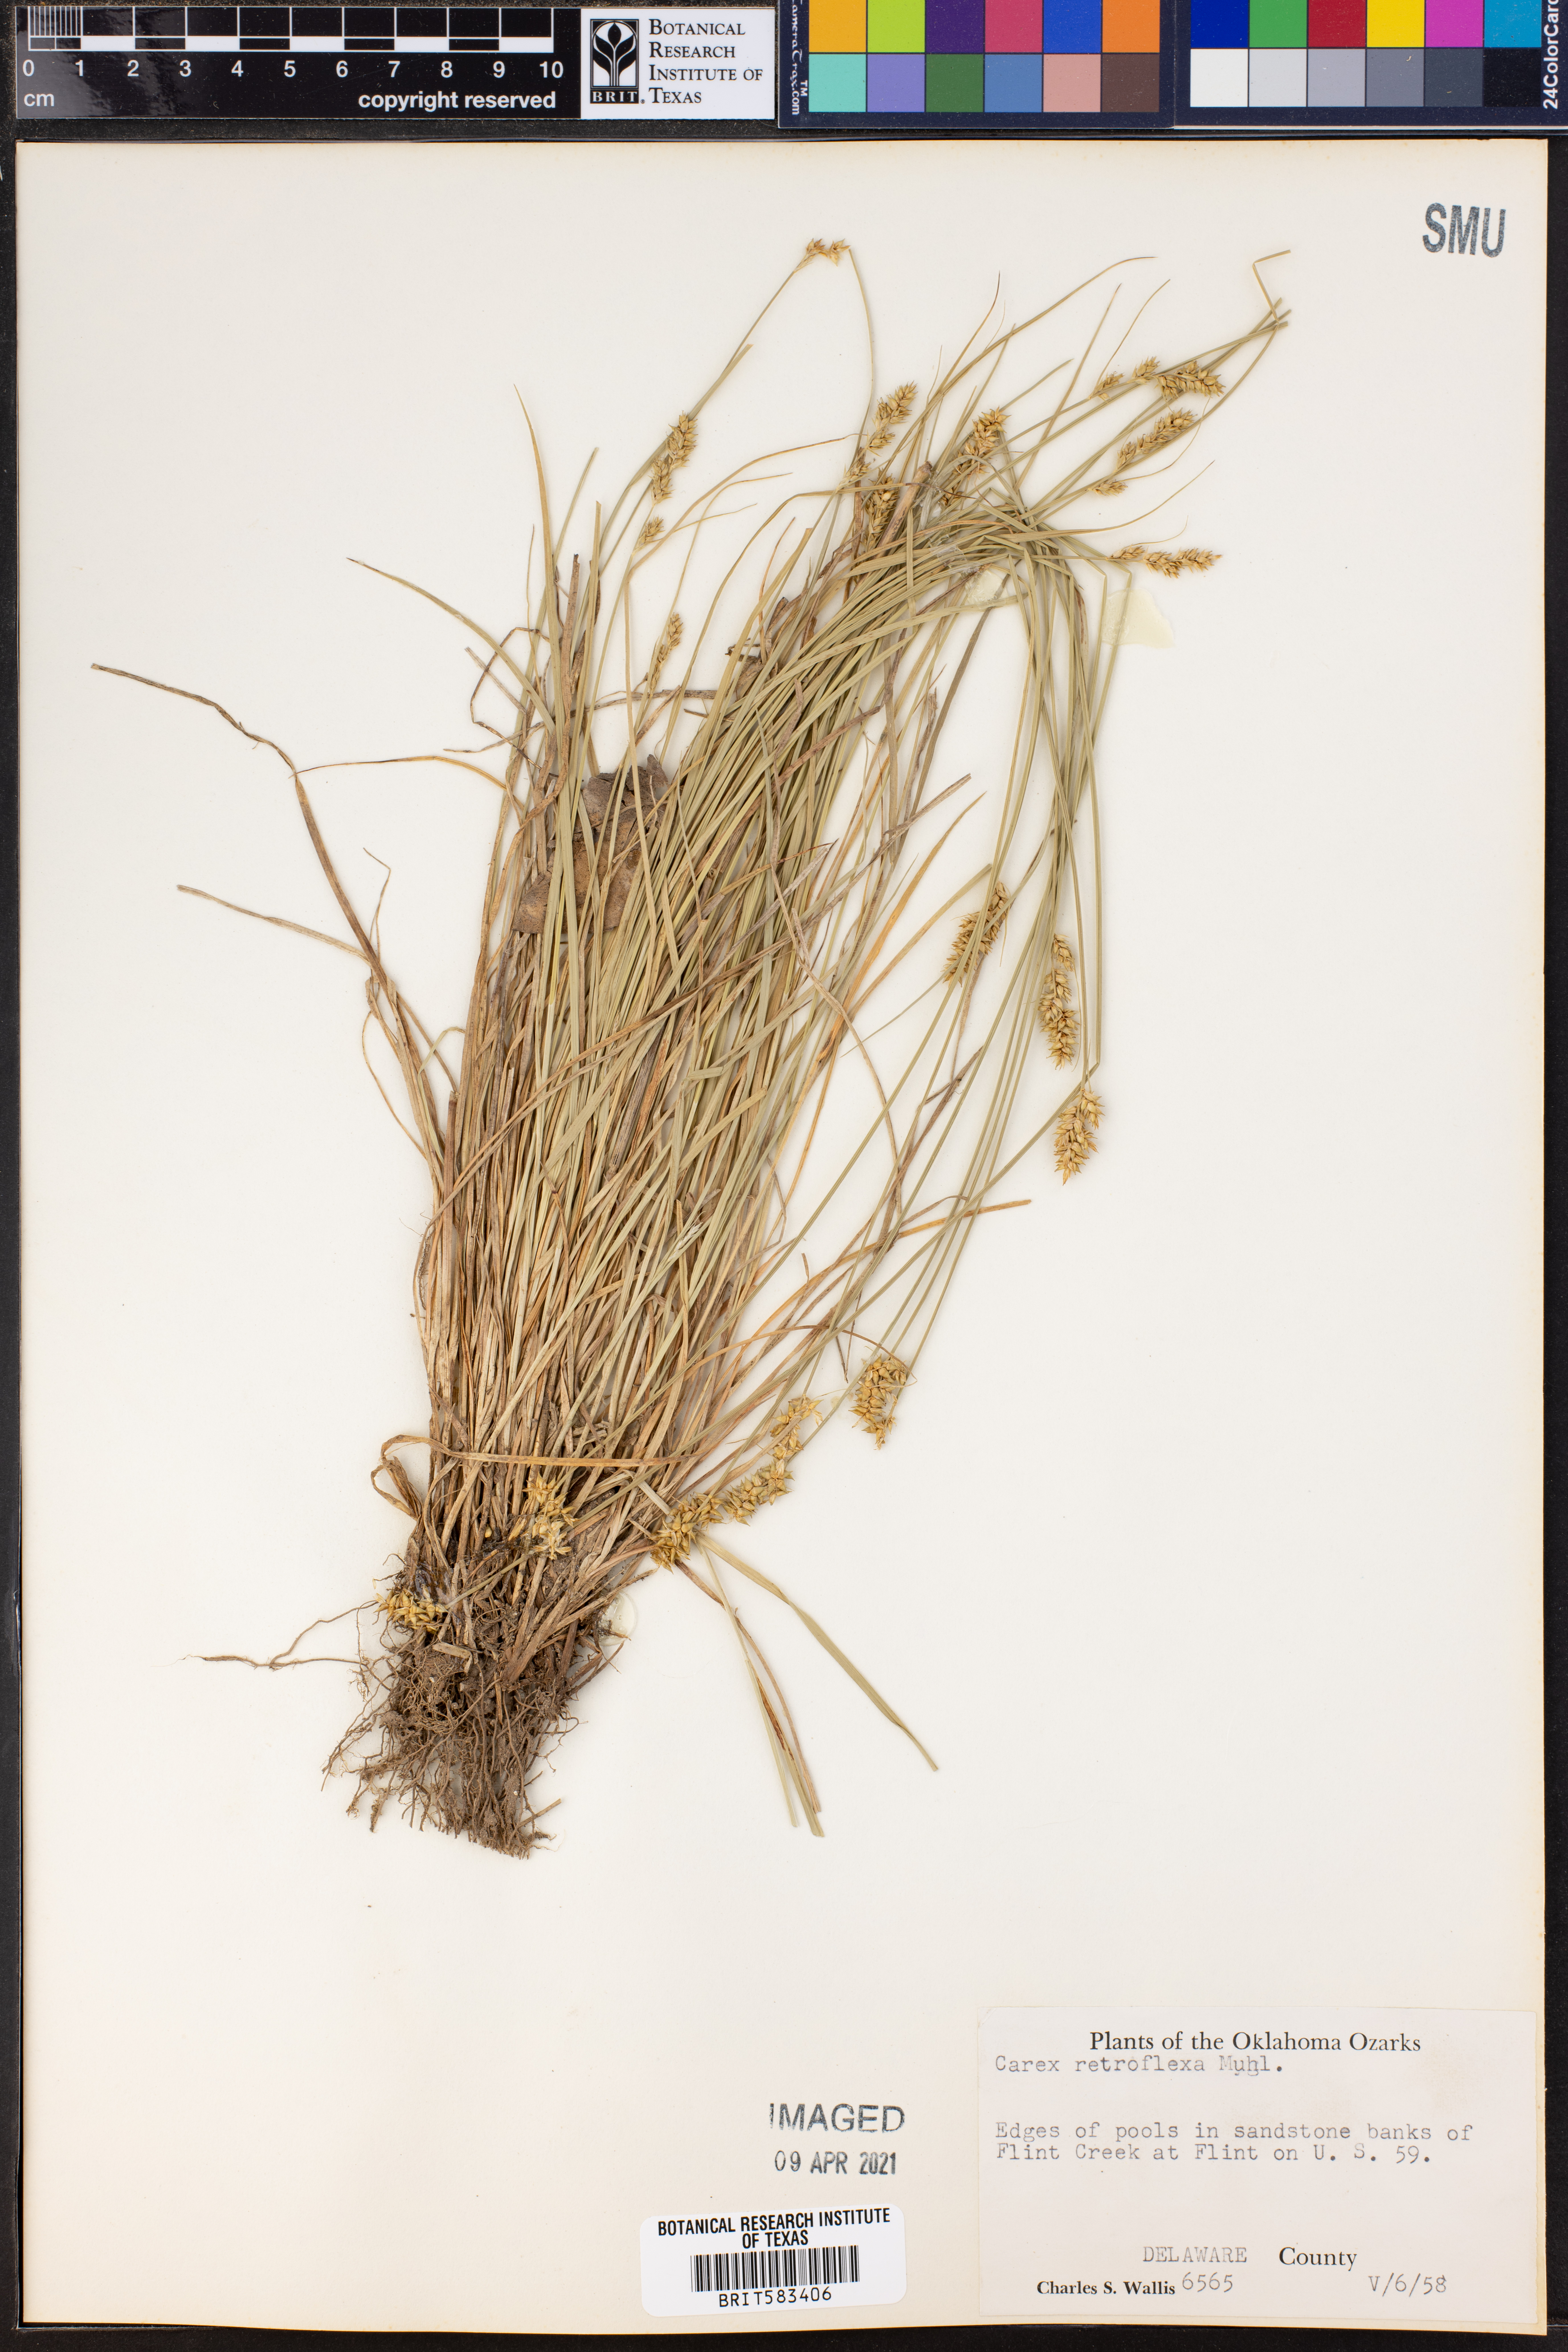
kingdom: Plantae
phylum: Tracheophyta
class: Liliopsida
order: Poales
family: Cyperaceae
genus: Carex
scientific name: Carex retroflexa
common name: Reflexed sedge
